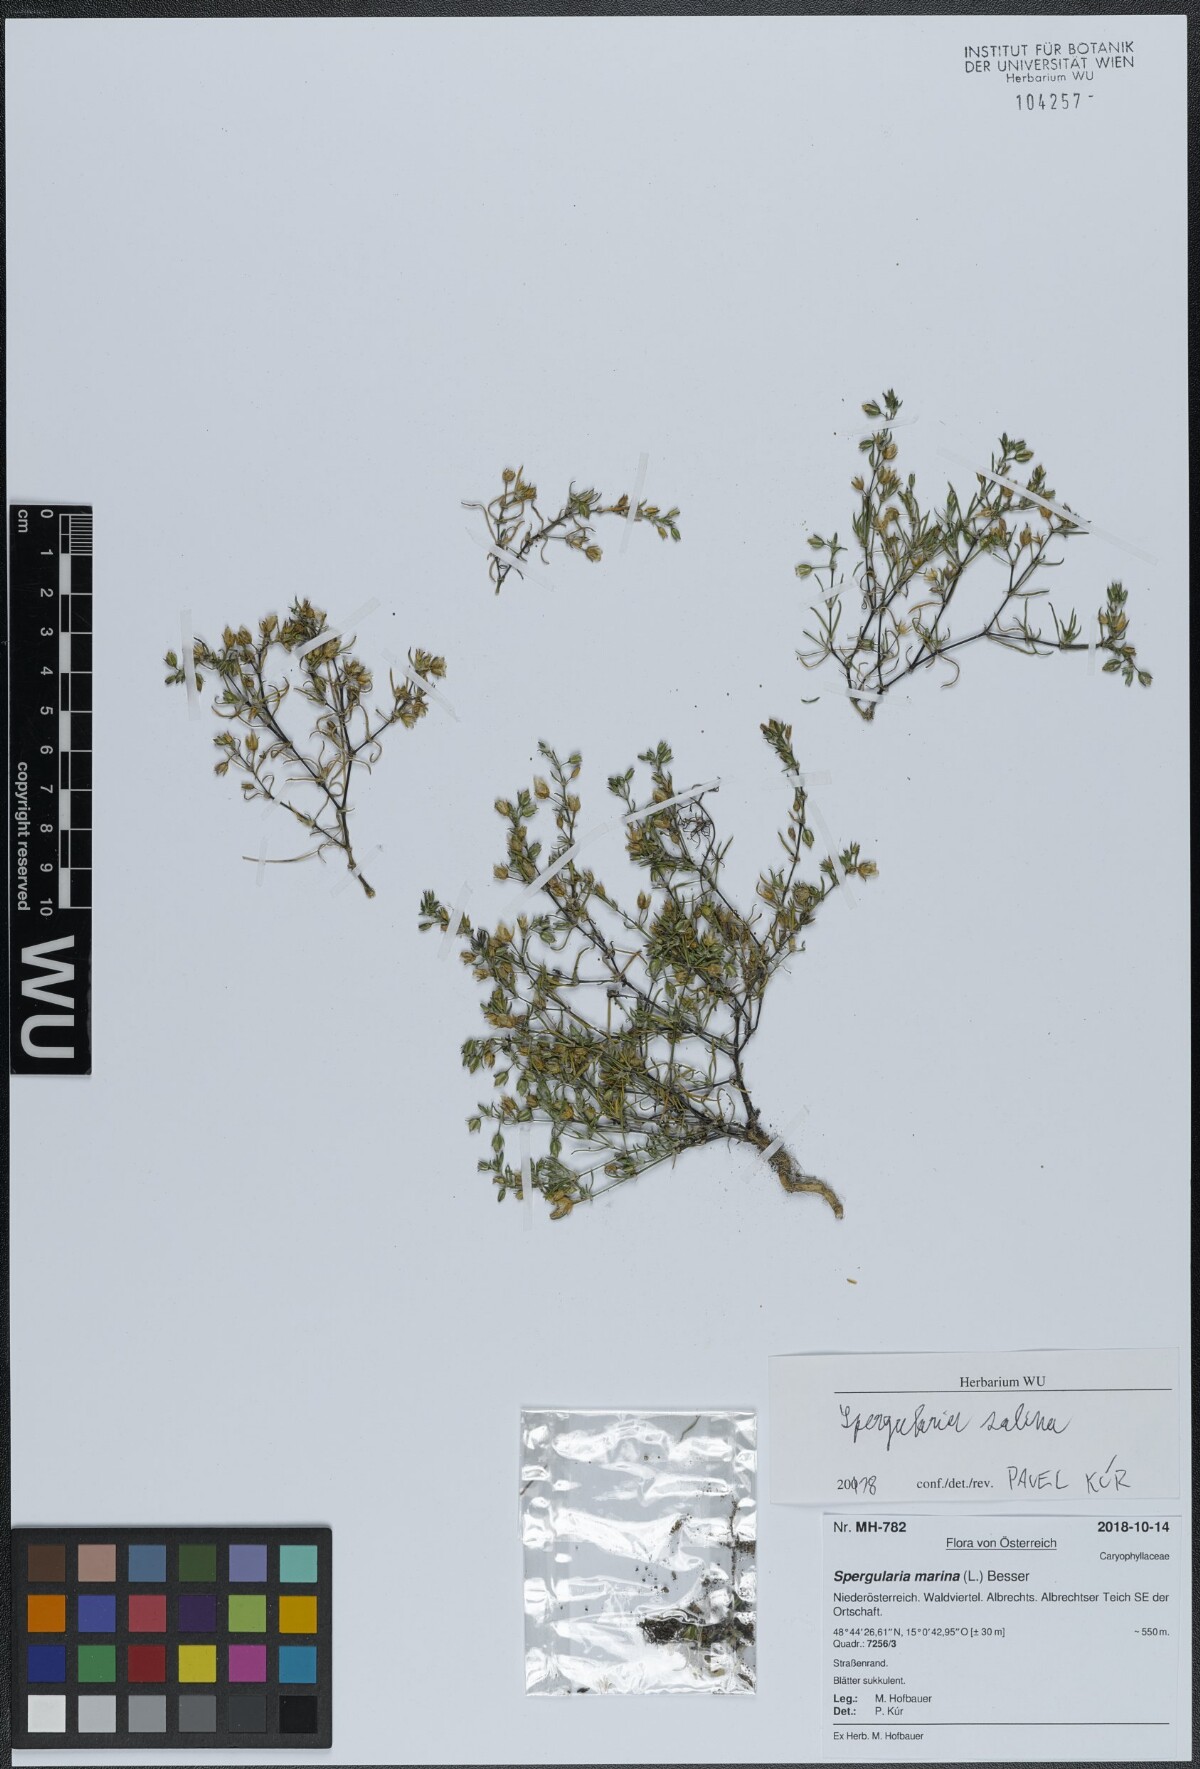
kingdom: Plantae
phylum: Tracheophyta
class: Magnoliopsida
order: Caryophyllales
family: Caryophyllaceae
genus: Spergularia
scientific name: Spergularia marina
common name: Lesser sea-spurrey
